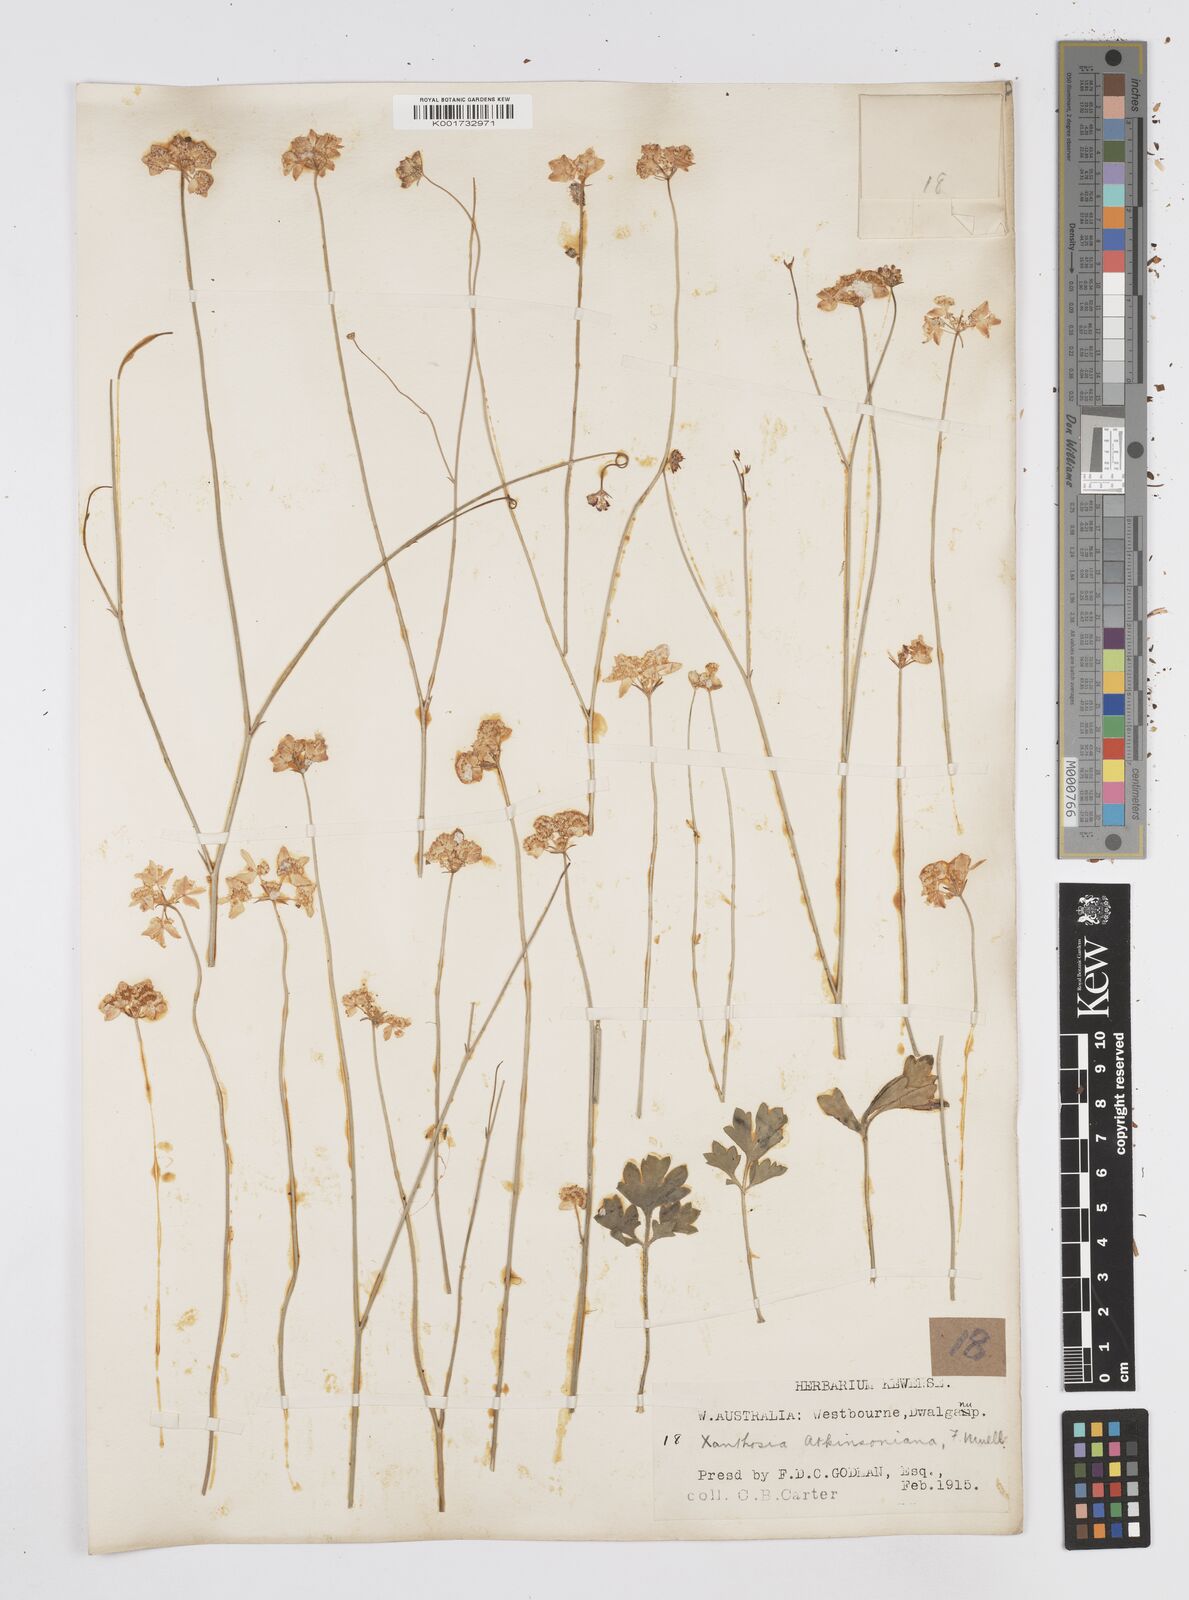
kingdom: Plantae
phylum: Tracheophyta
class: Magnoliopsida
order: Apiales
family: Apiaceae
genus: Xanthosia
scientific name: Xanthosia atkinsoniana
